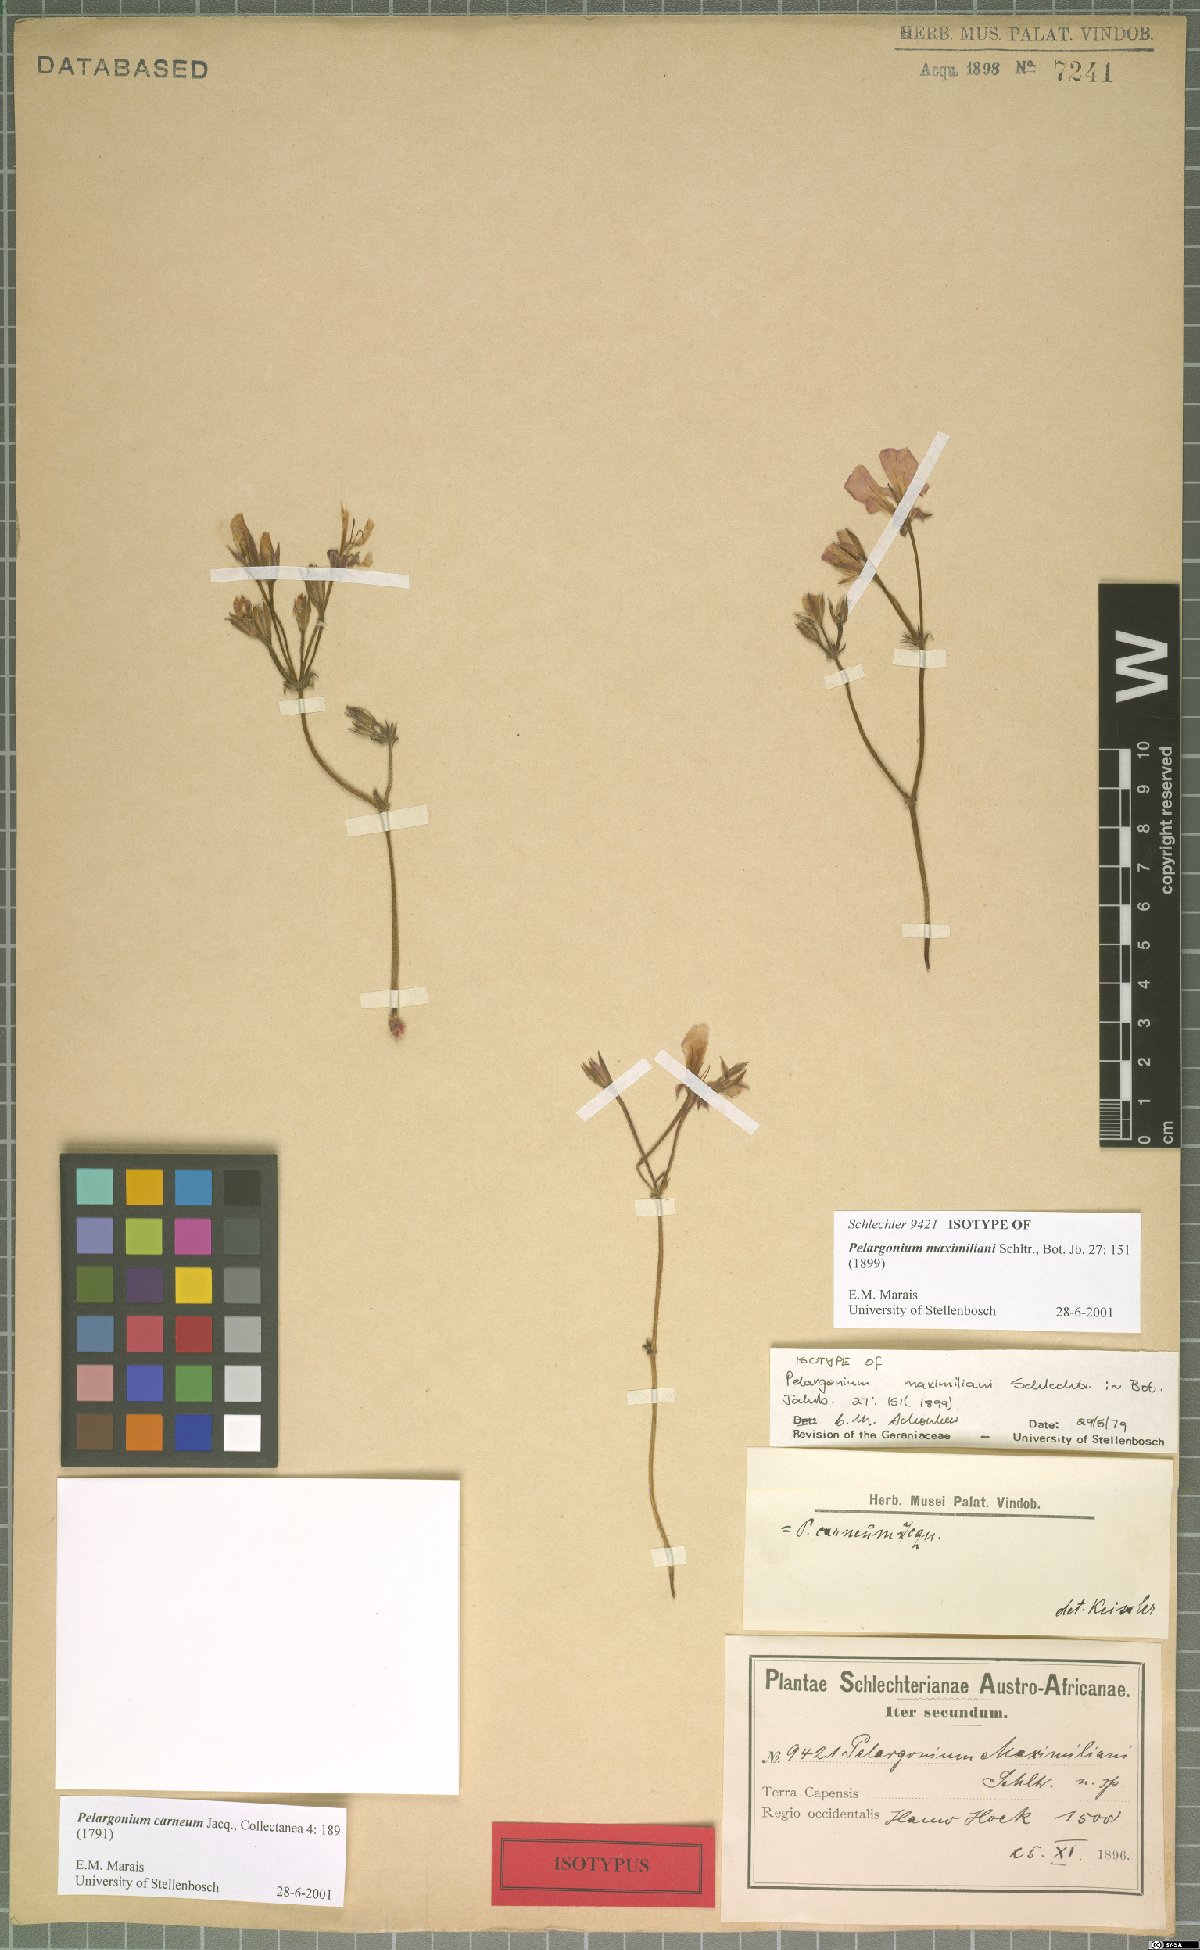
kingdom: Plantae
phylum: Tracheophyta
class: Magnoliopsida
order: Geraniales
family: Geraniaceae
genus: Pelargonium
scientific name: Pelargonium carneum
